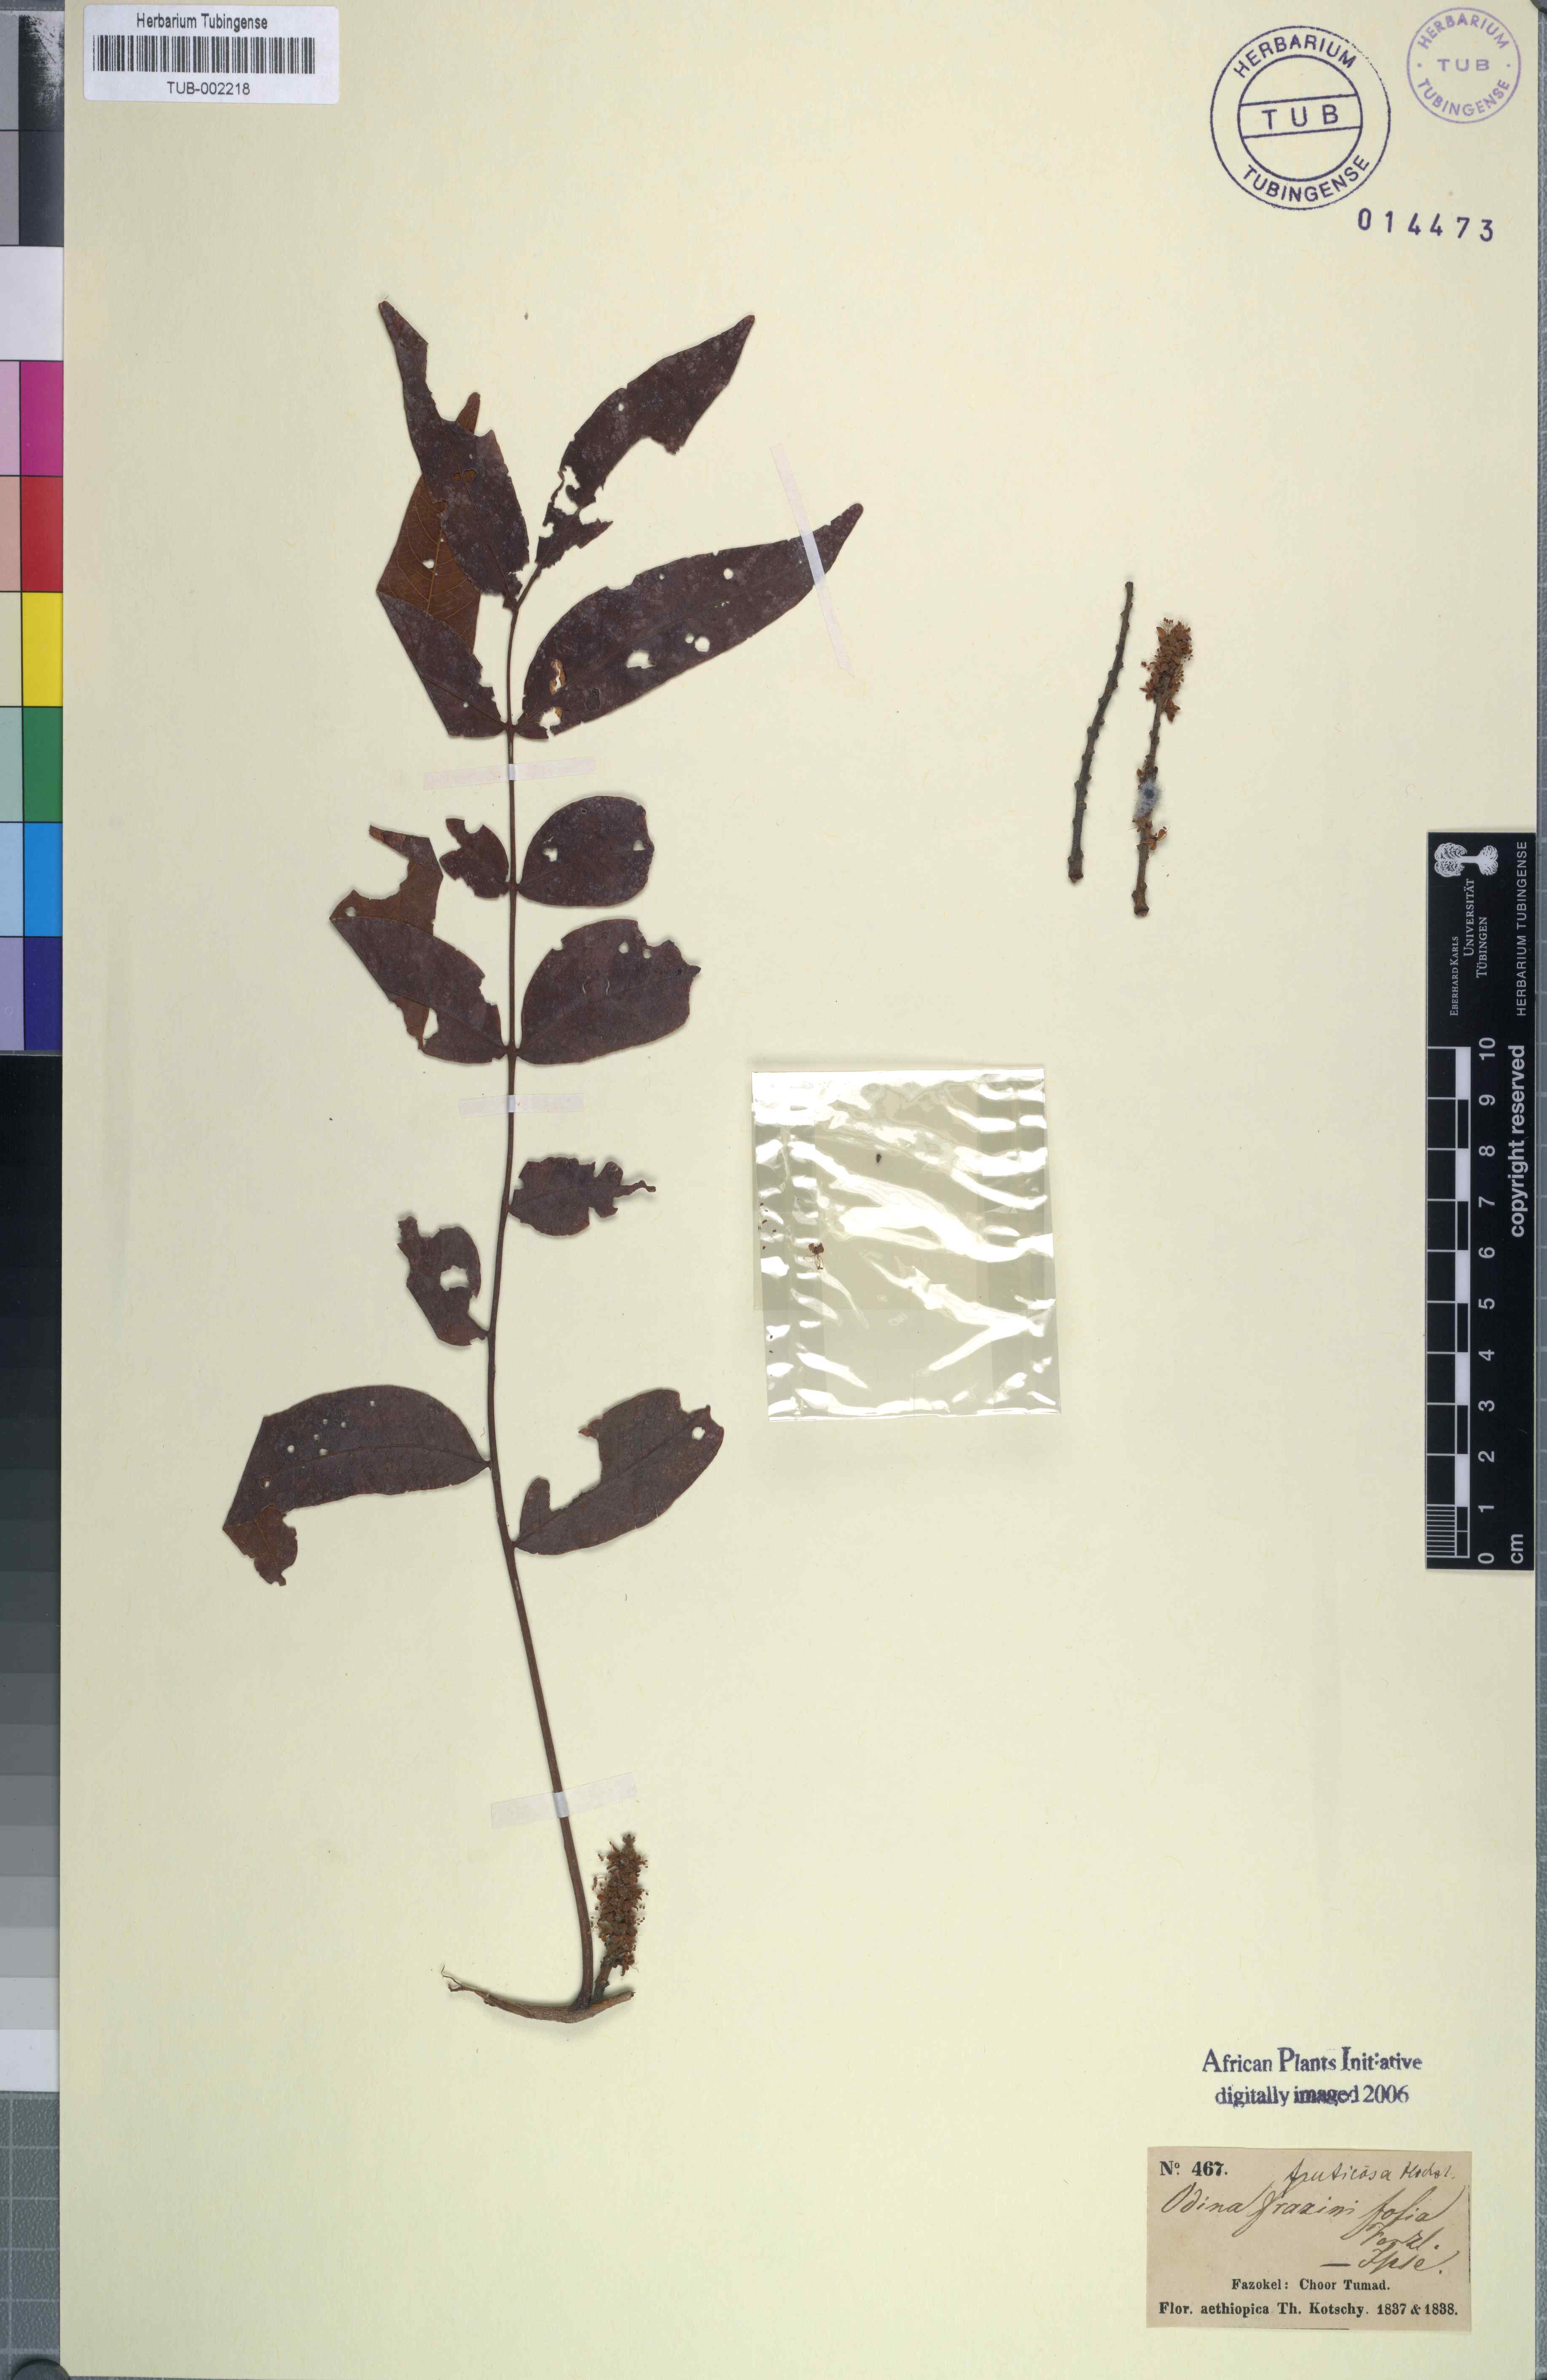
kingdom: Plantae
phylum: Tracheophyta
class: Magnoliopsida
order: Sapindales
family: Anacardiaceae
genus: Lannea
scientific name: Lannea fruticosa
